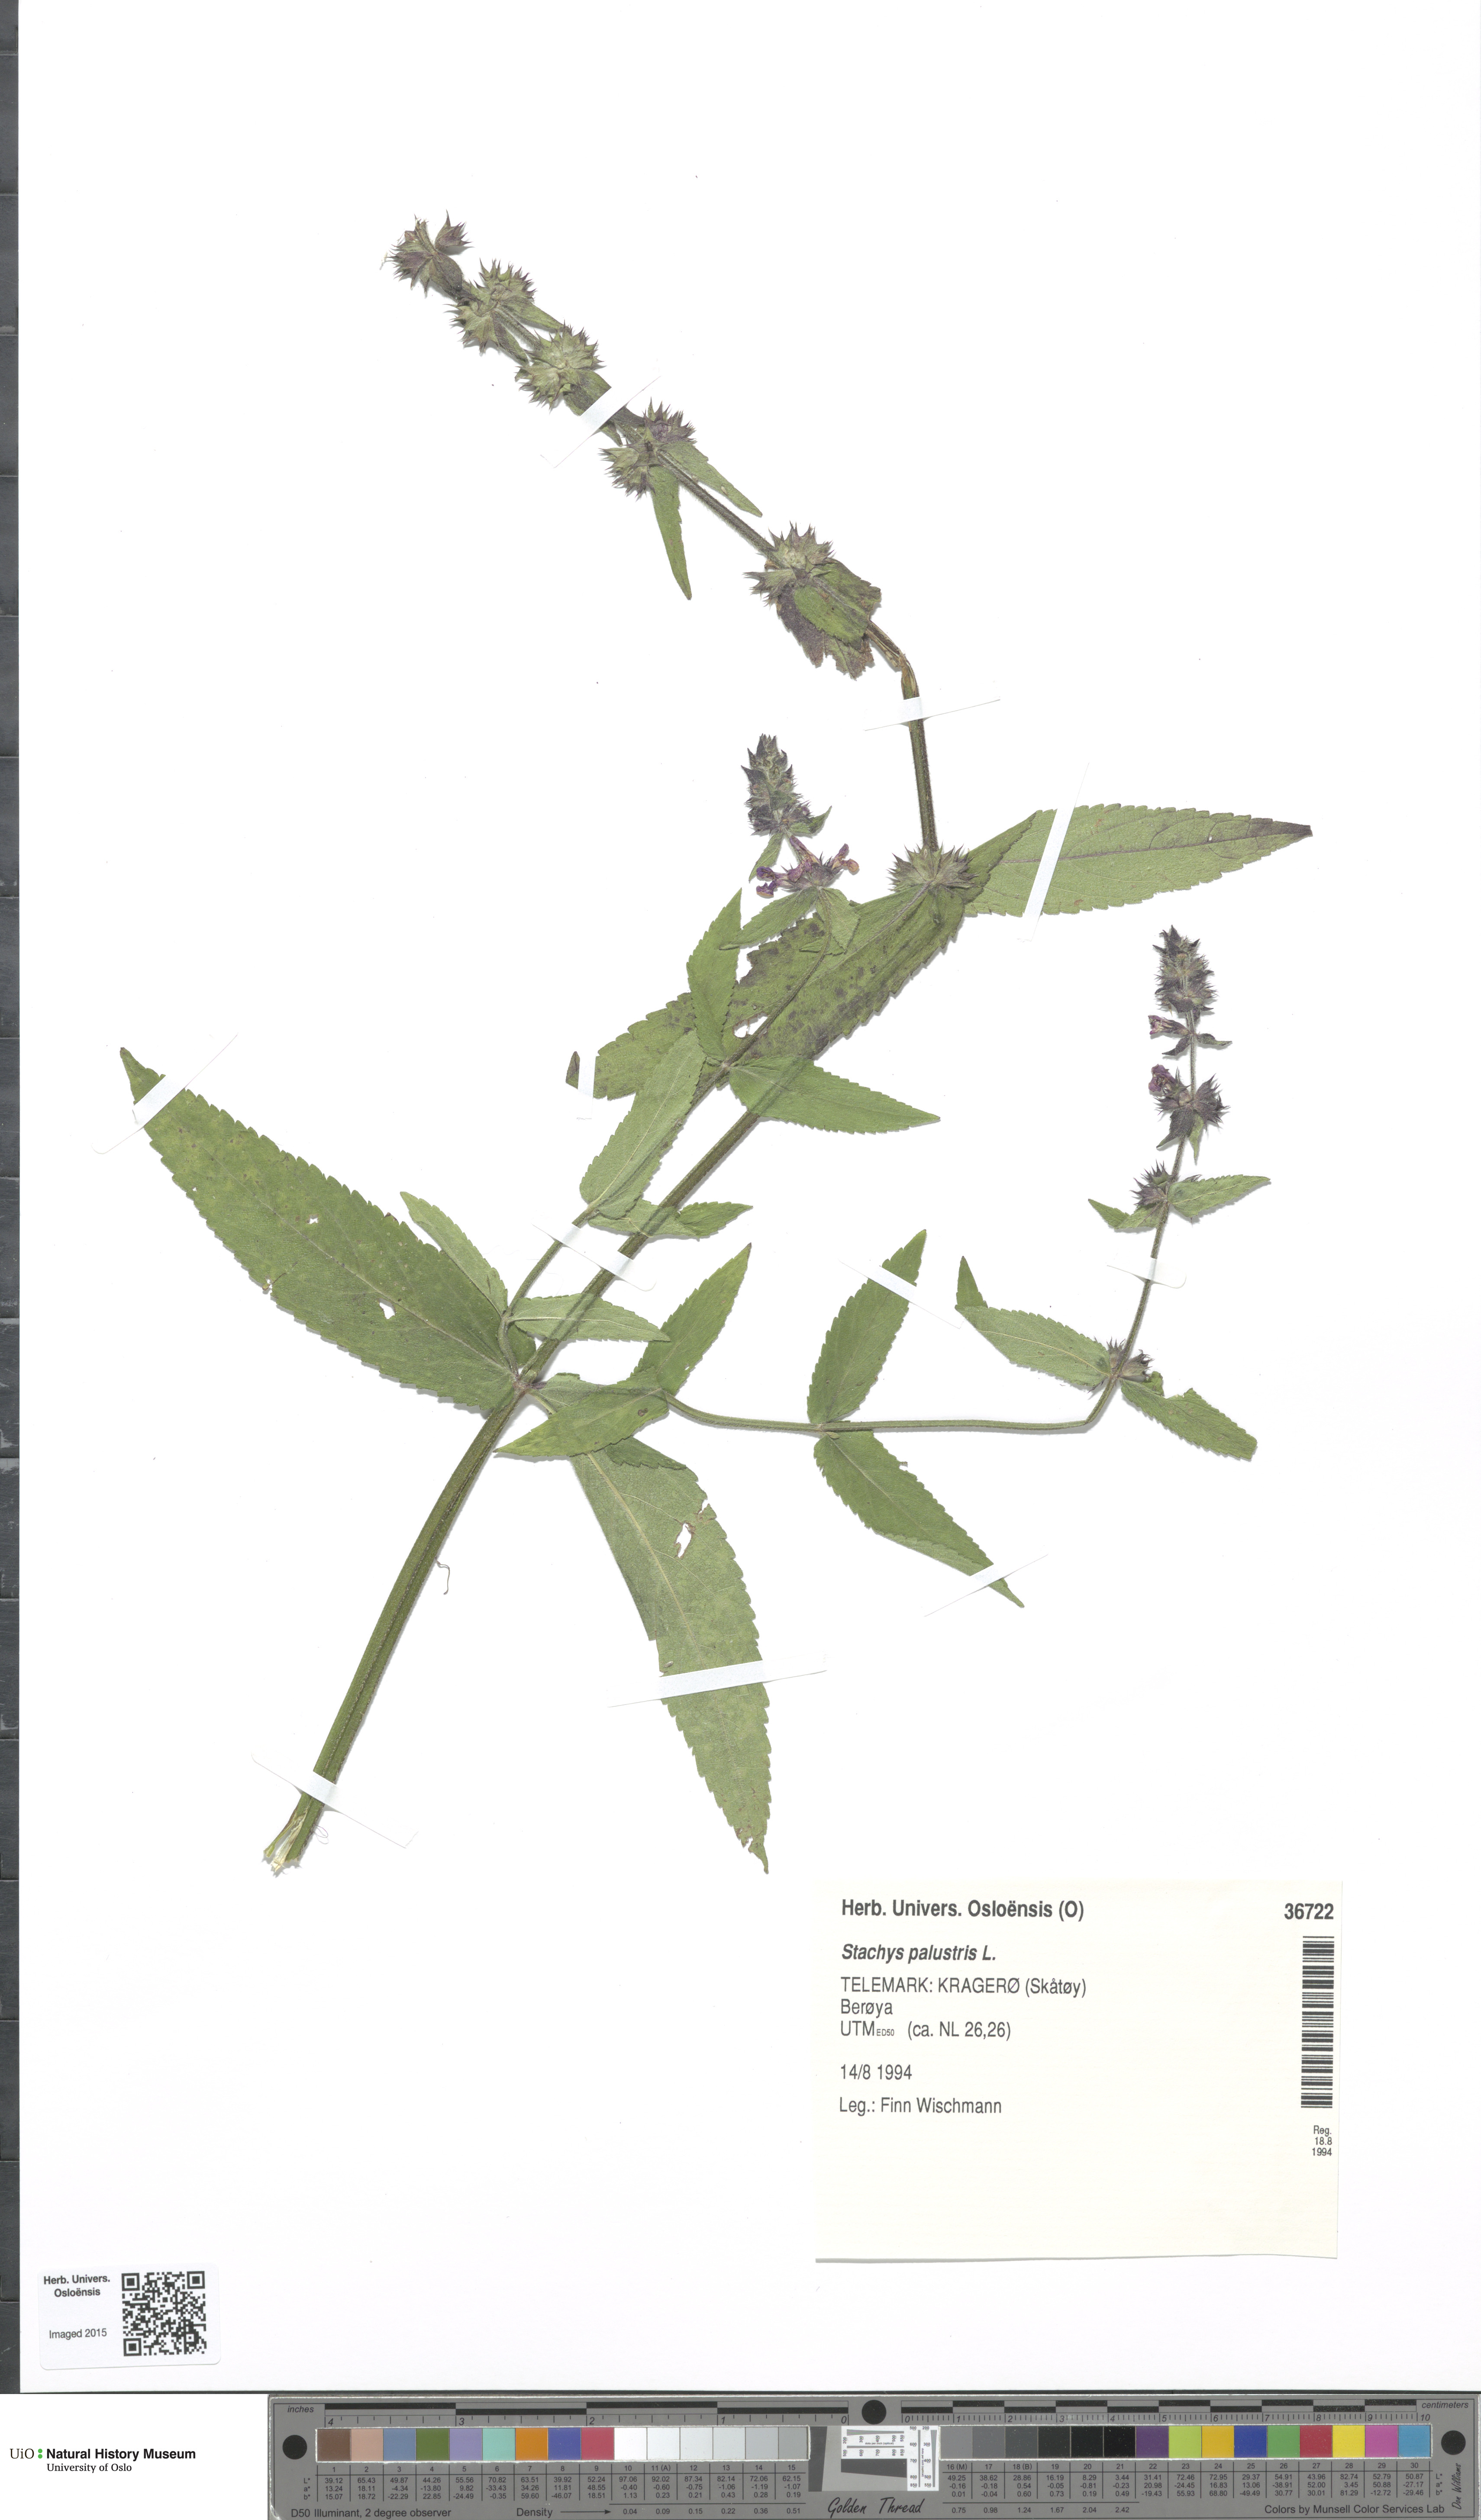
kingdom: Plantae
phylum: Tracheophyta
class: Magnoliopsida
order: Lamiales
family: Lamiaceae
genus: Stachys
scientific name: Stachys palustris
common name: Marsh woundwort
